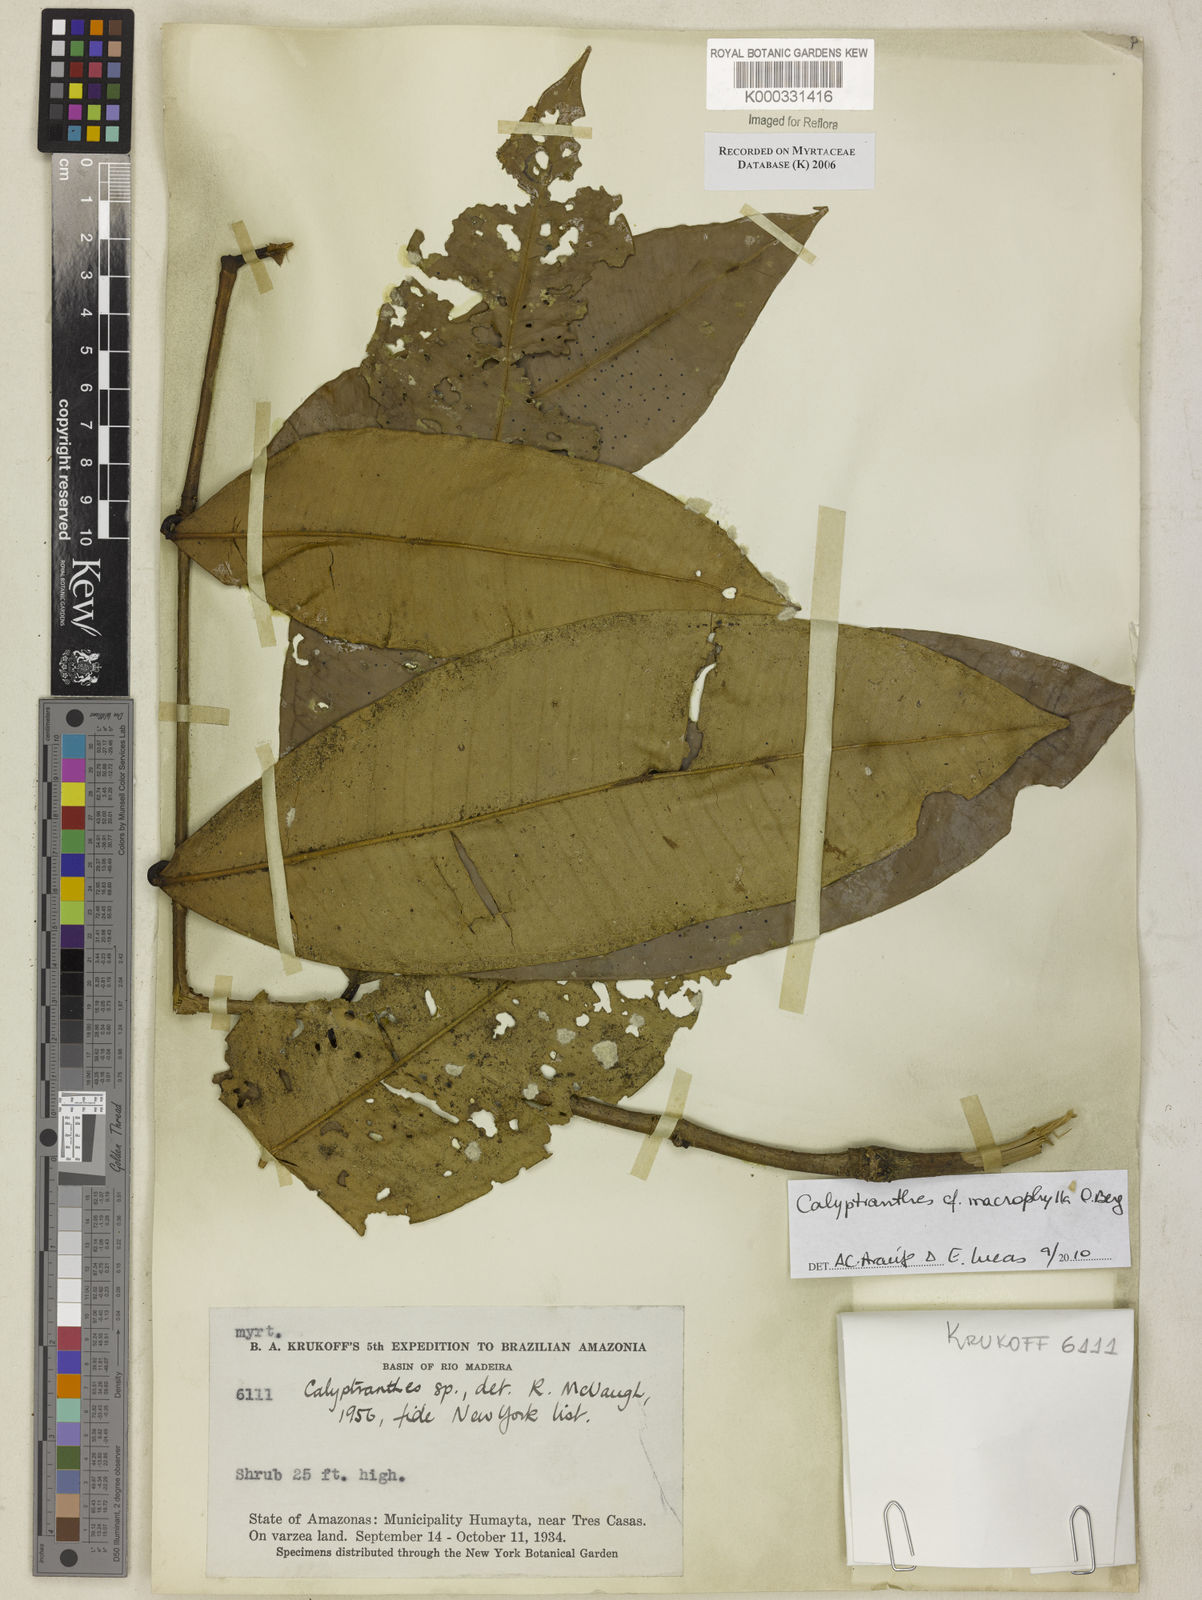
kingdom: Plantae
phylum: Tracheophyta
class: Magnoliopsida
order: Myrtales
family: Myrtaceae
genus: Calyptranthes
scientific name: Calyptranthes
